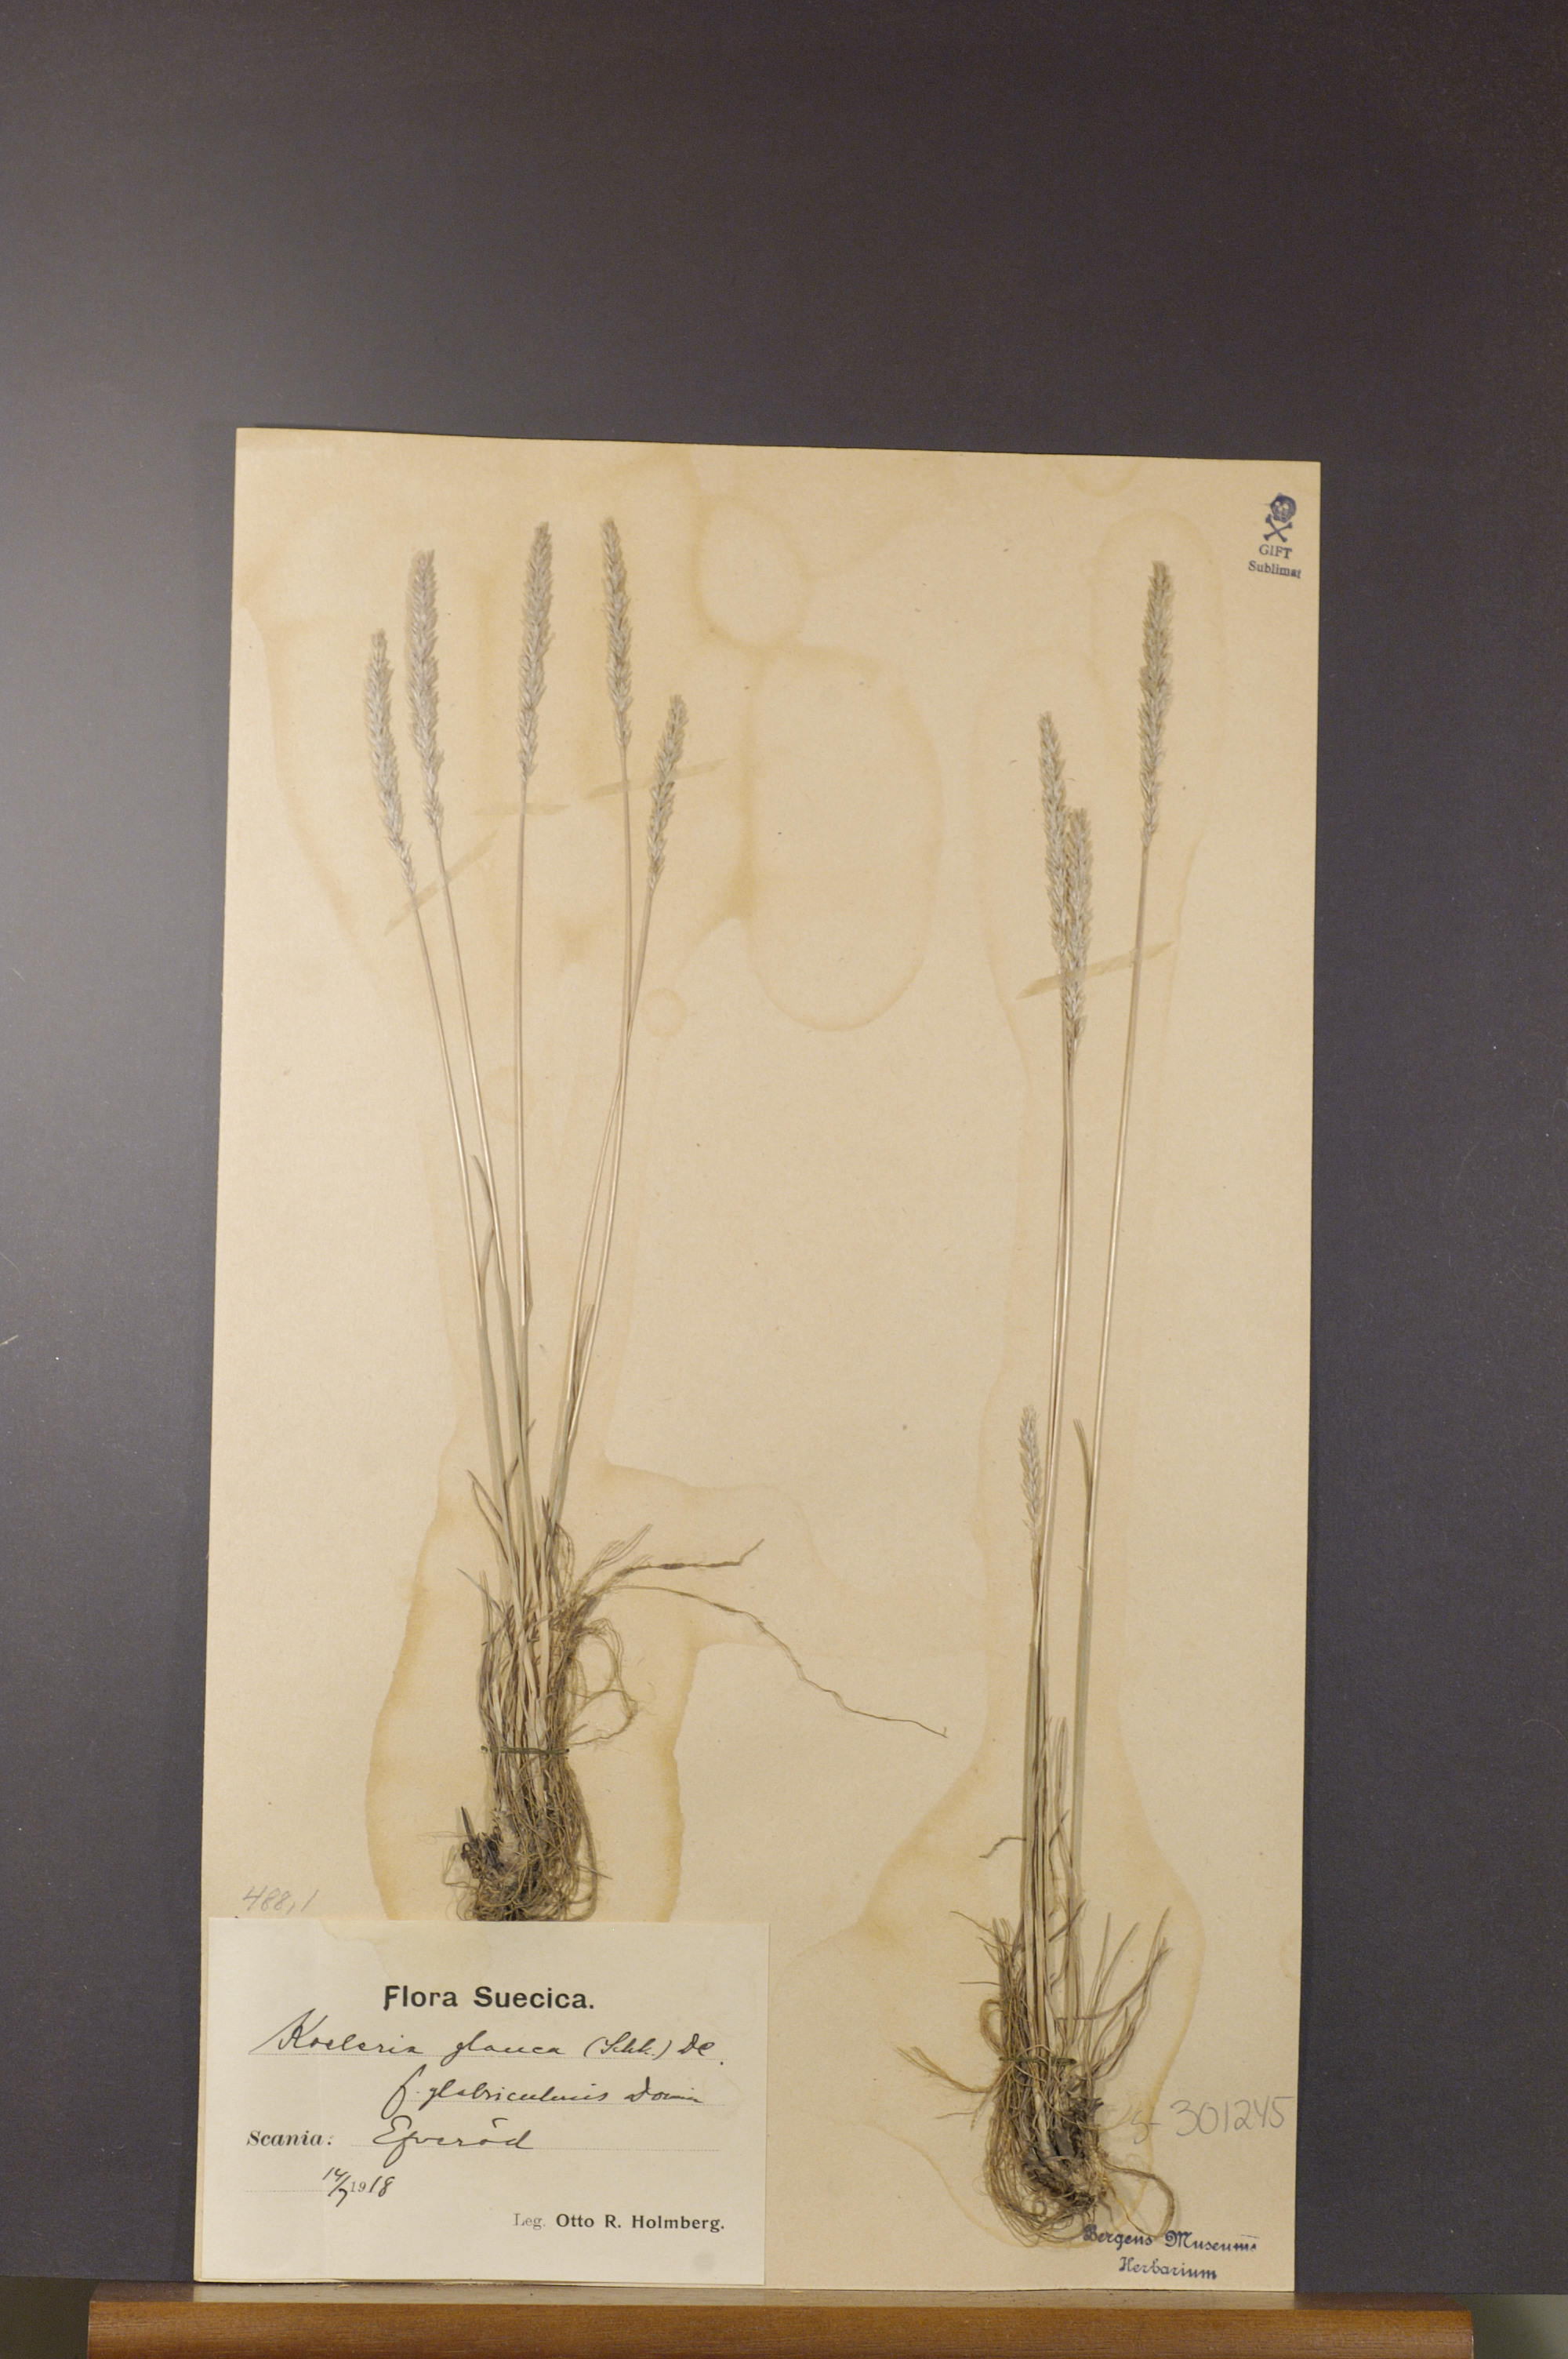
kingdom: Plantae
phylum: Tracheophyta
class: Liliopsida
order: Poales
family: Poaceae
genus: Koeleria
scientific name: Koeleria glauca
